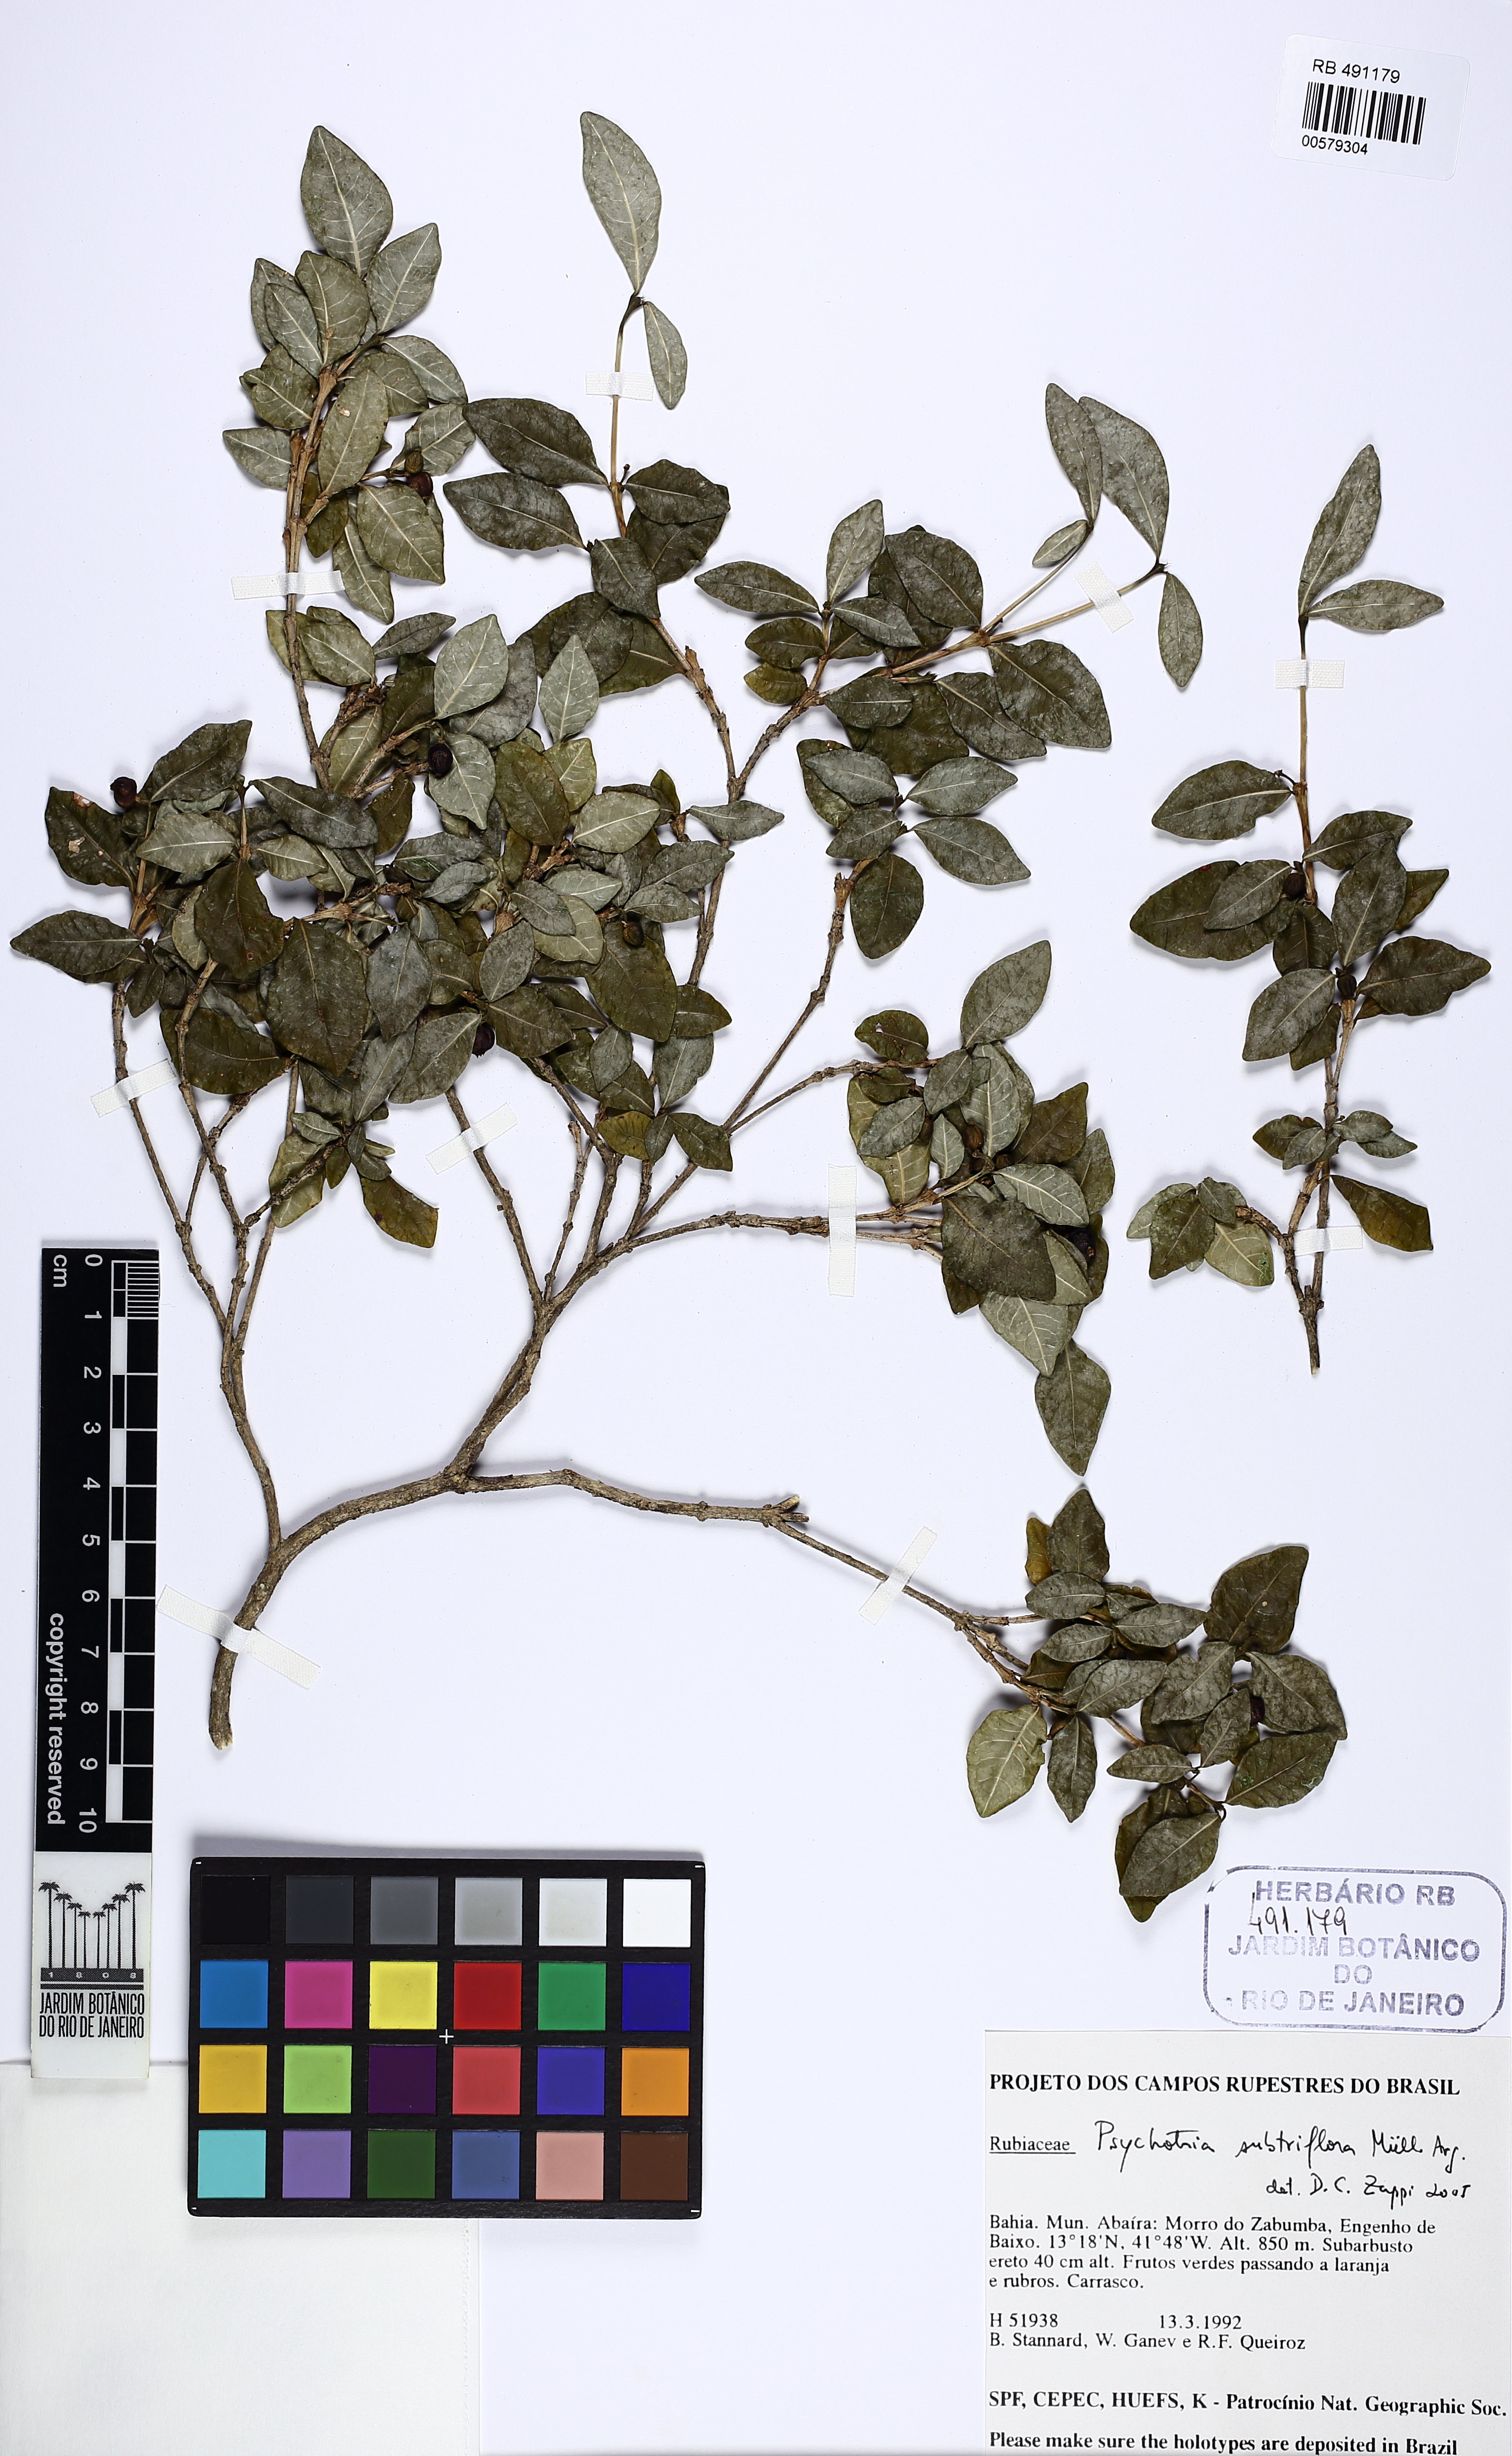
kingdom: Plantae
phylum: Tracheophyta
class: Magnoliopsida
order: Gentianales
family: Rubiaceae
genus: Palicourea
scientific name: Palicourea subfusca
